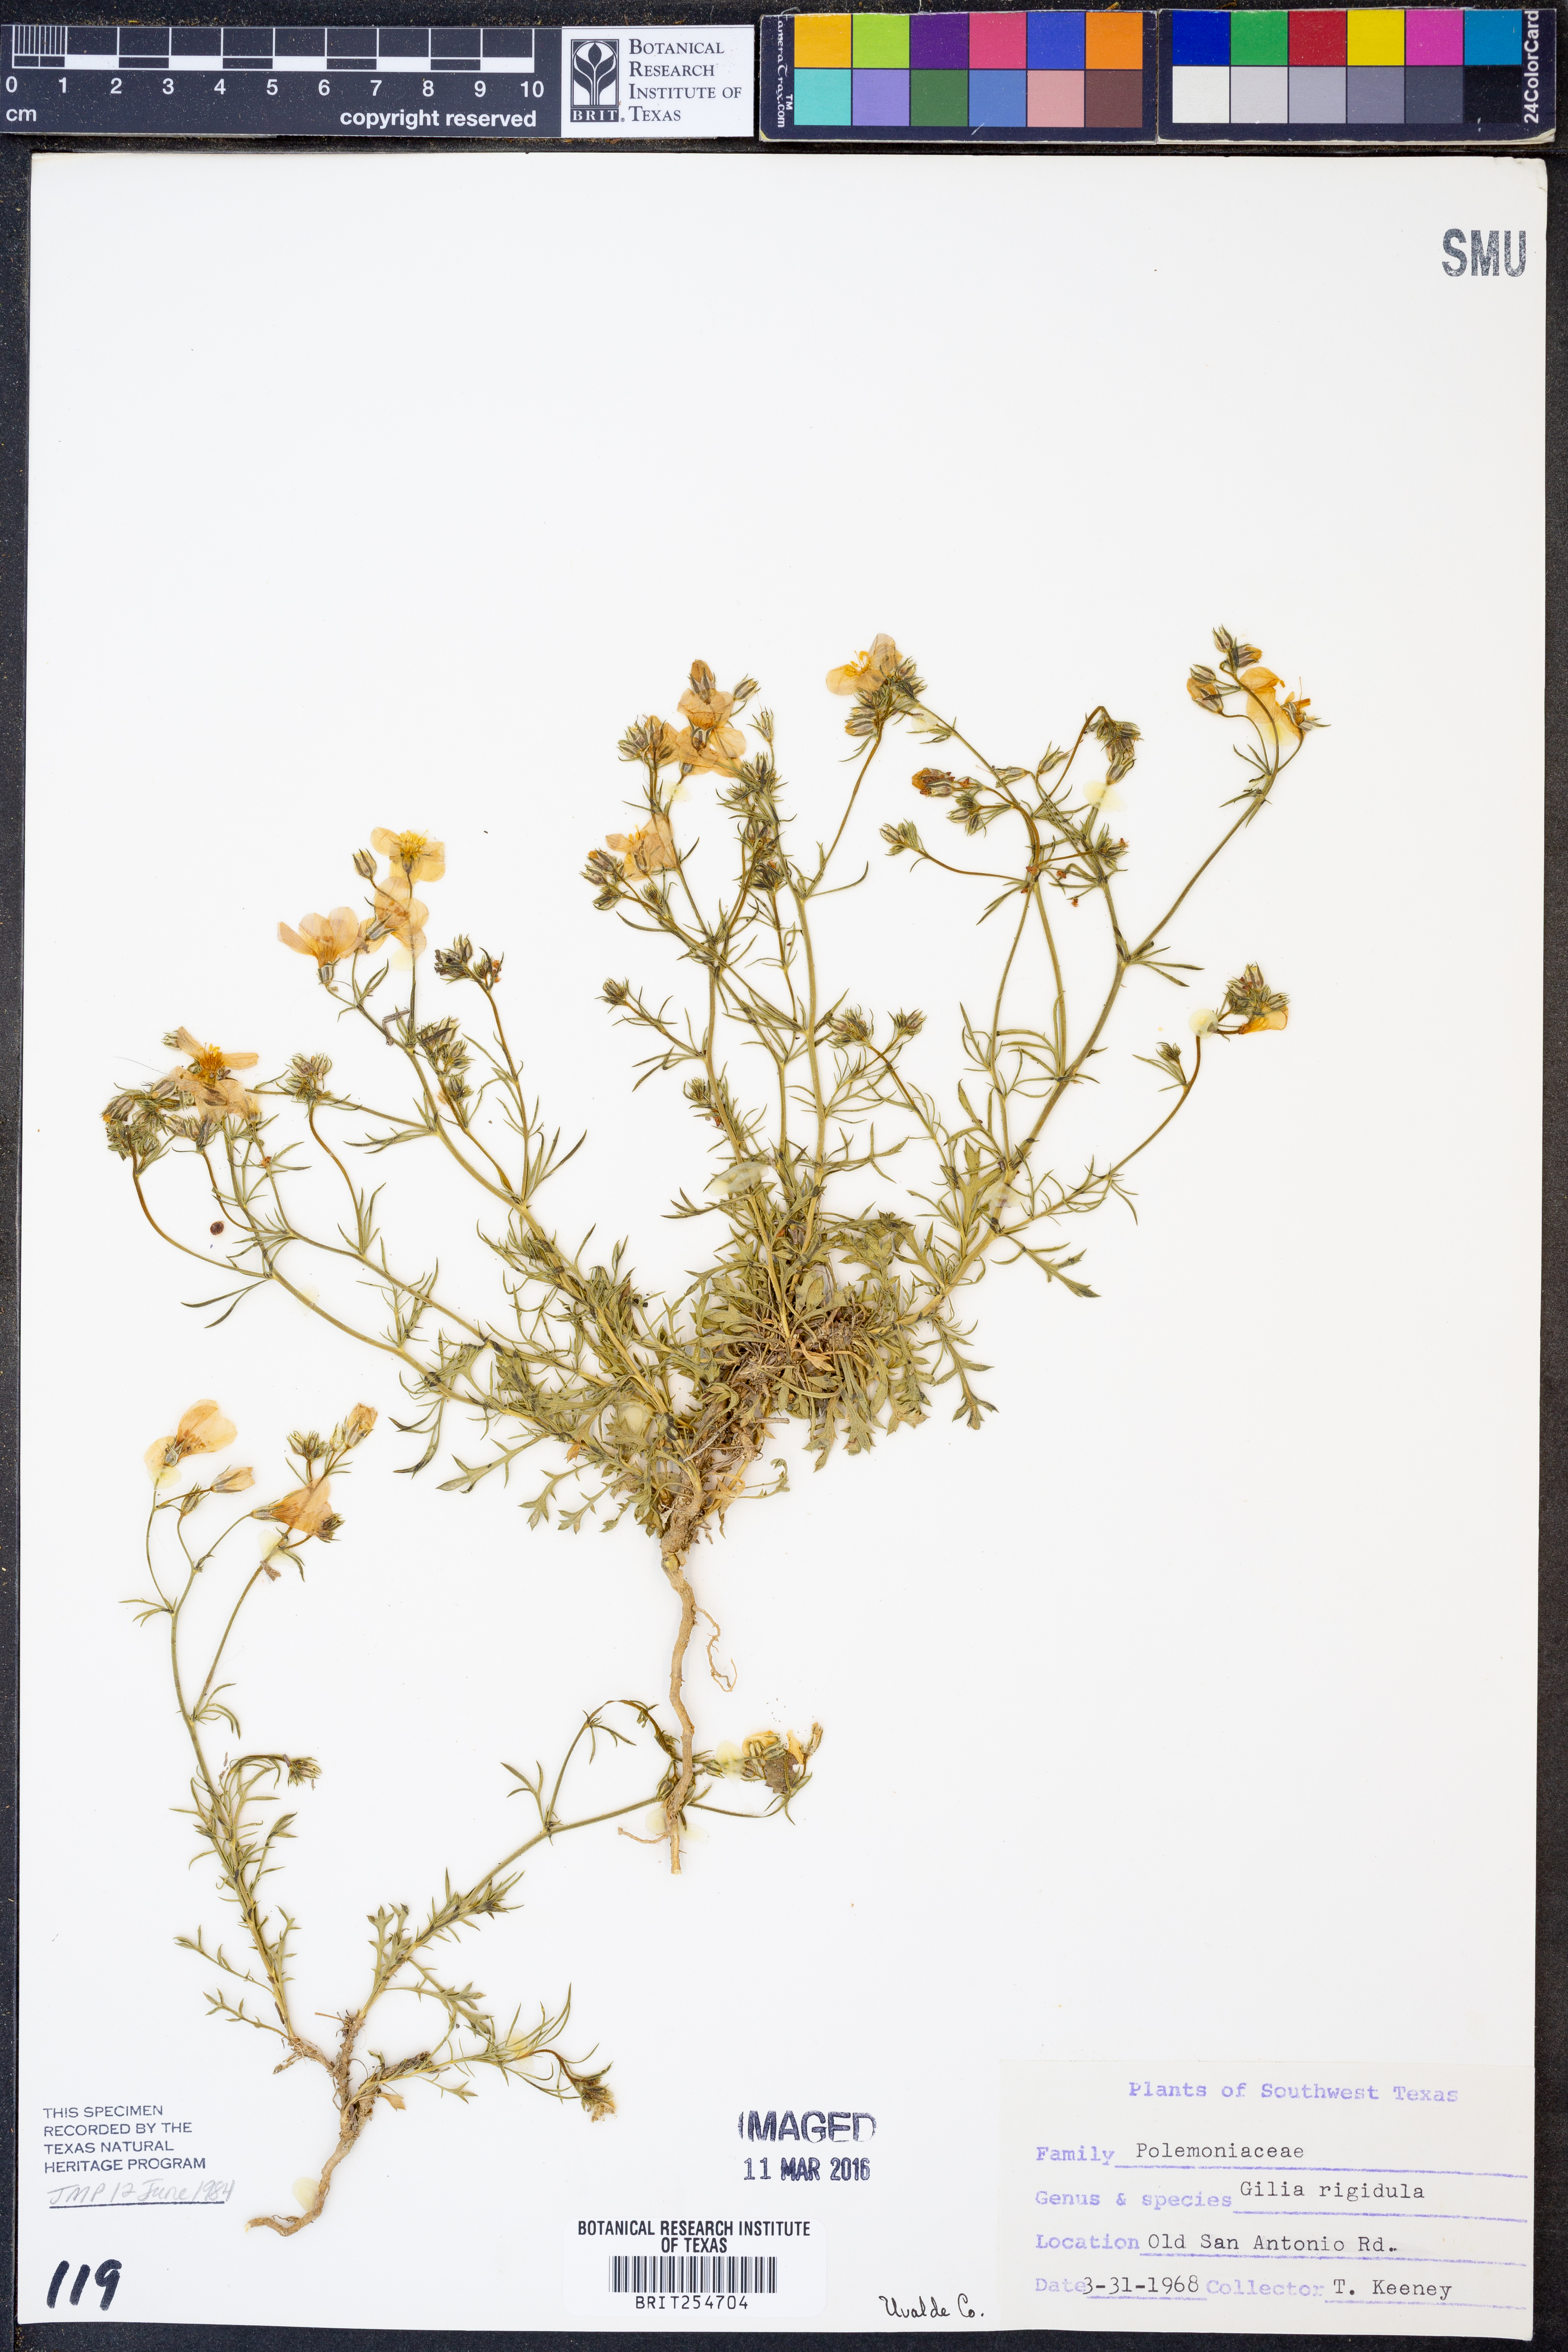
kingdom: Plantae
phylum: Tracheophyta
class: Magnoliopsida
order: Ericales
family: Polemoniaceae
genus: Giliastrum
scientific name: Giliastrum rigidulum
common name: Bluebowls
